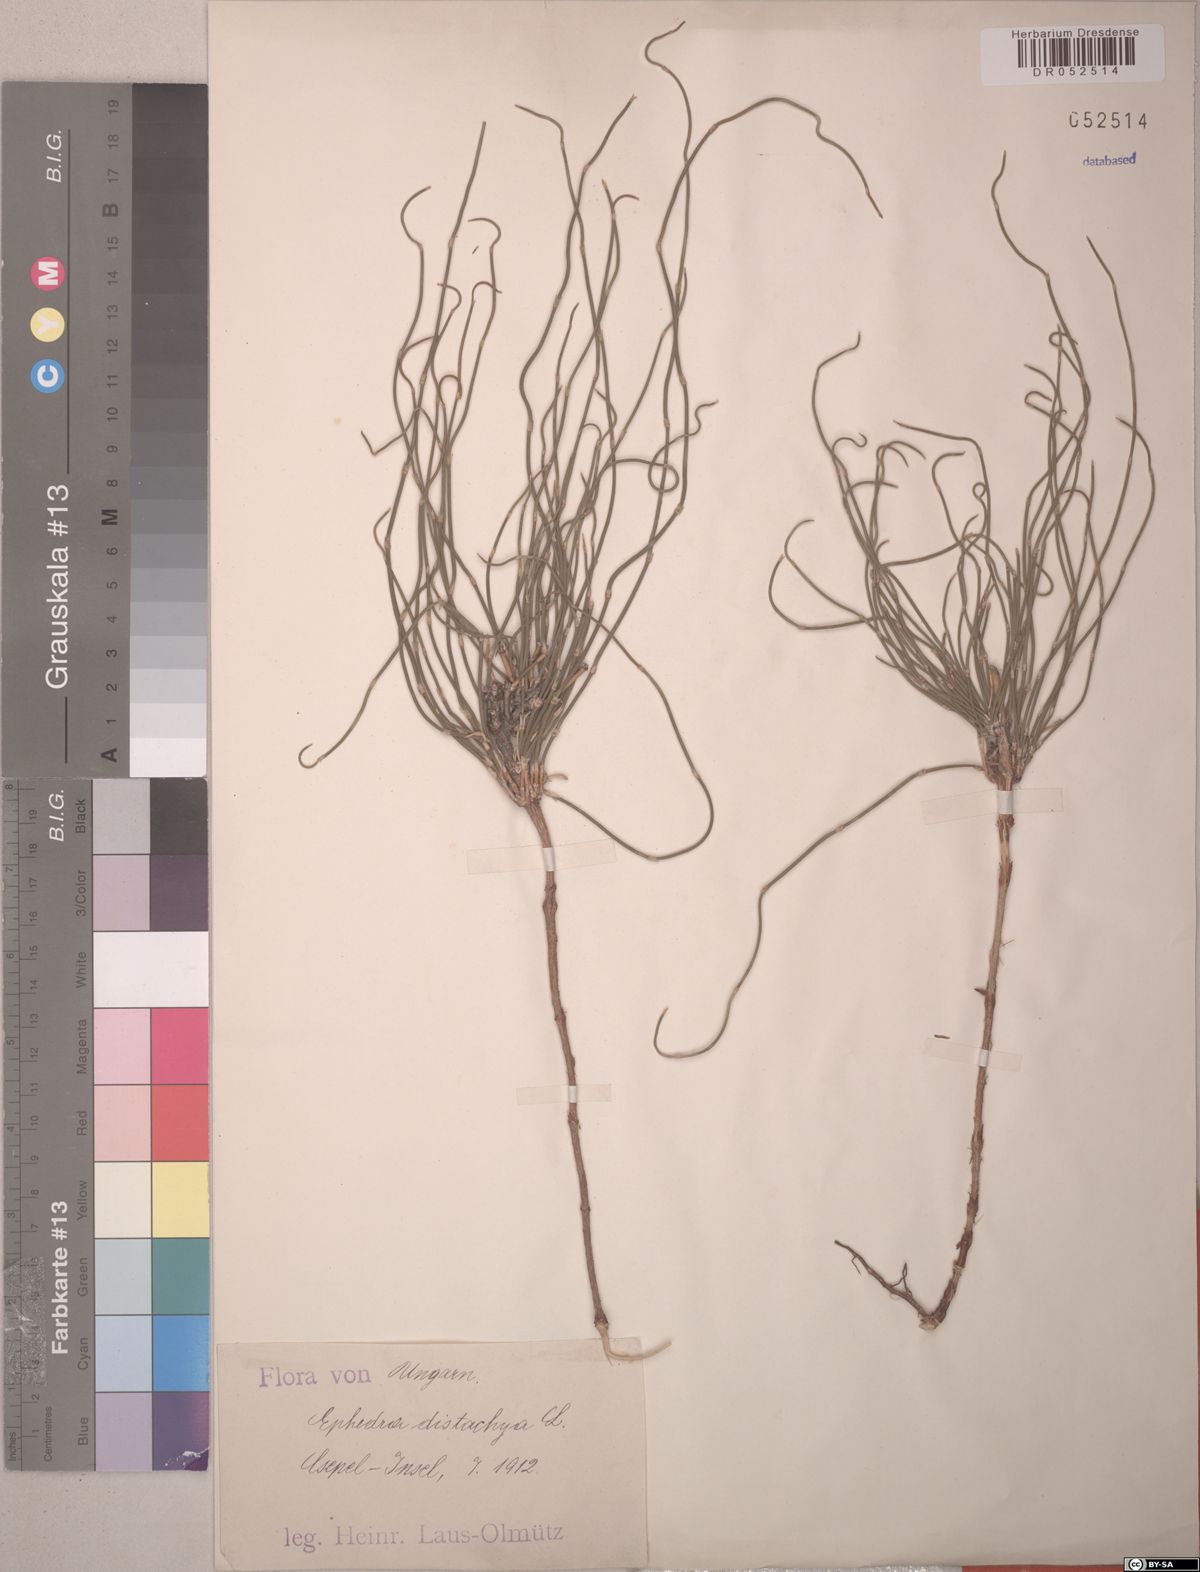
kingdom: Plantae
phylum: Tracheophyta
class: Gnetopsida
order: Ephedrales
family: Ephedraceae
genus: Ephedra
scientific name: Ephedra distachya
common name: Sea grape
